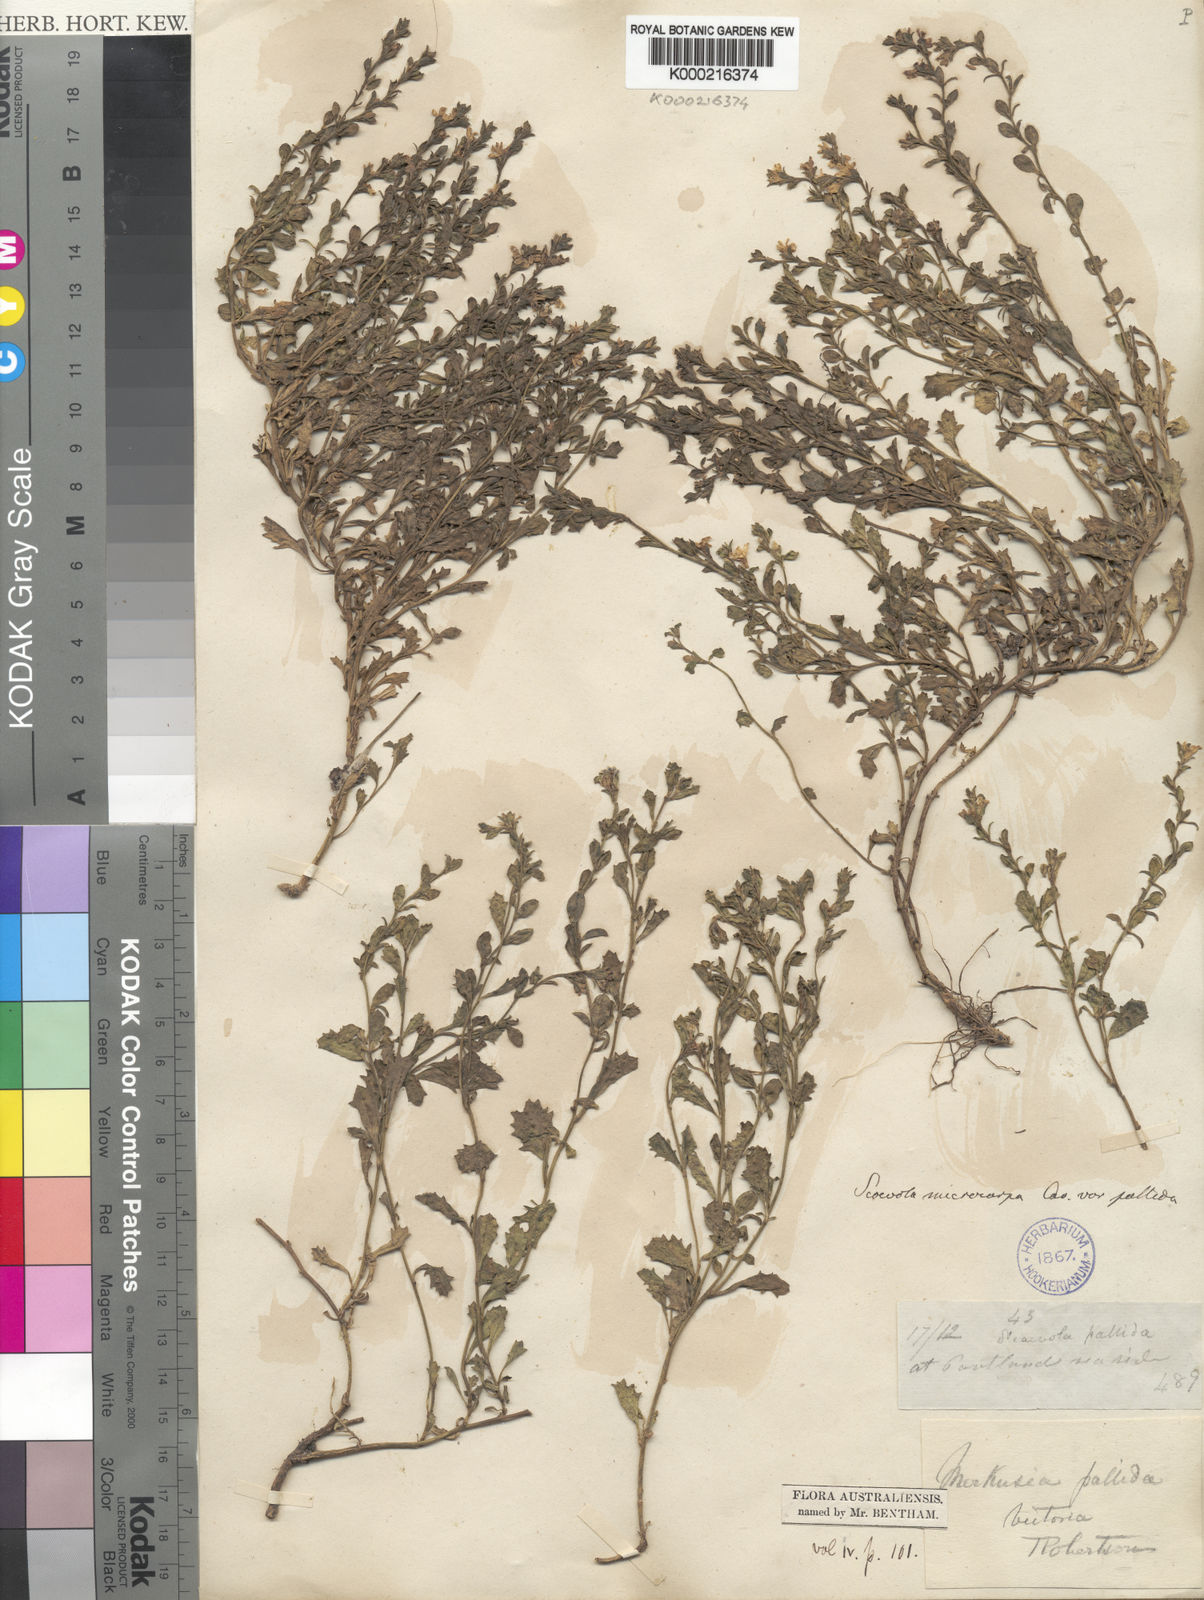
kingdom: Plantae
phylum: Tracheophyta
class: Magnoliopsida
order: Asterales
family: Goodeniaceae
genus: Scaevola
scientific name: Scaevola
